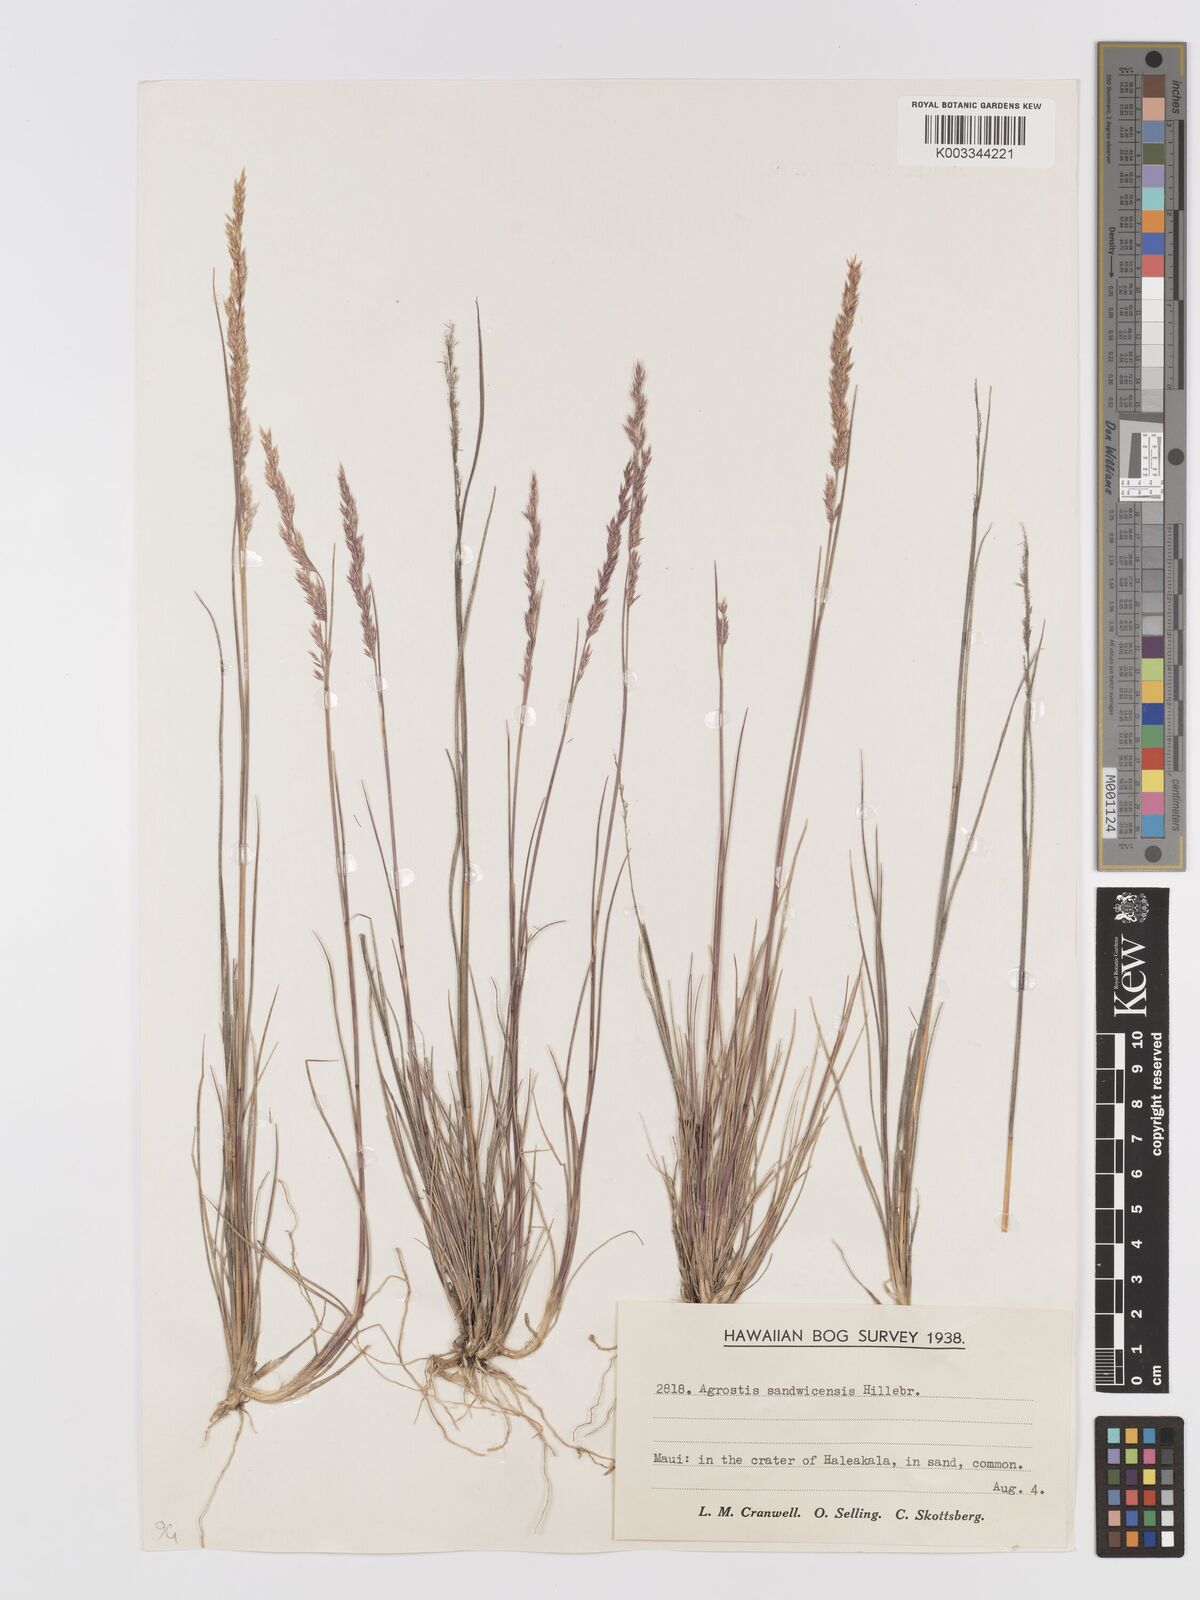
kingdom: Plantae
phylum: Tracheophyta
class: Liliopsida
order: Poales
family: Poaceae
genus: Agrostis
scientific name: Agrostis sandwicensis
